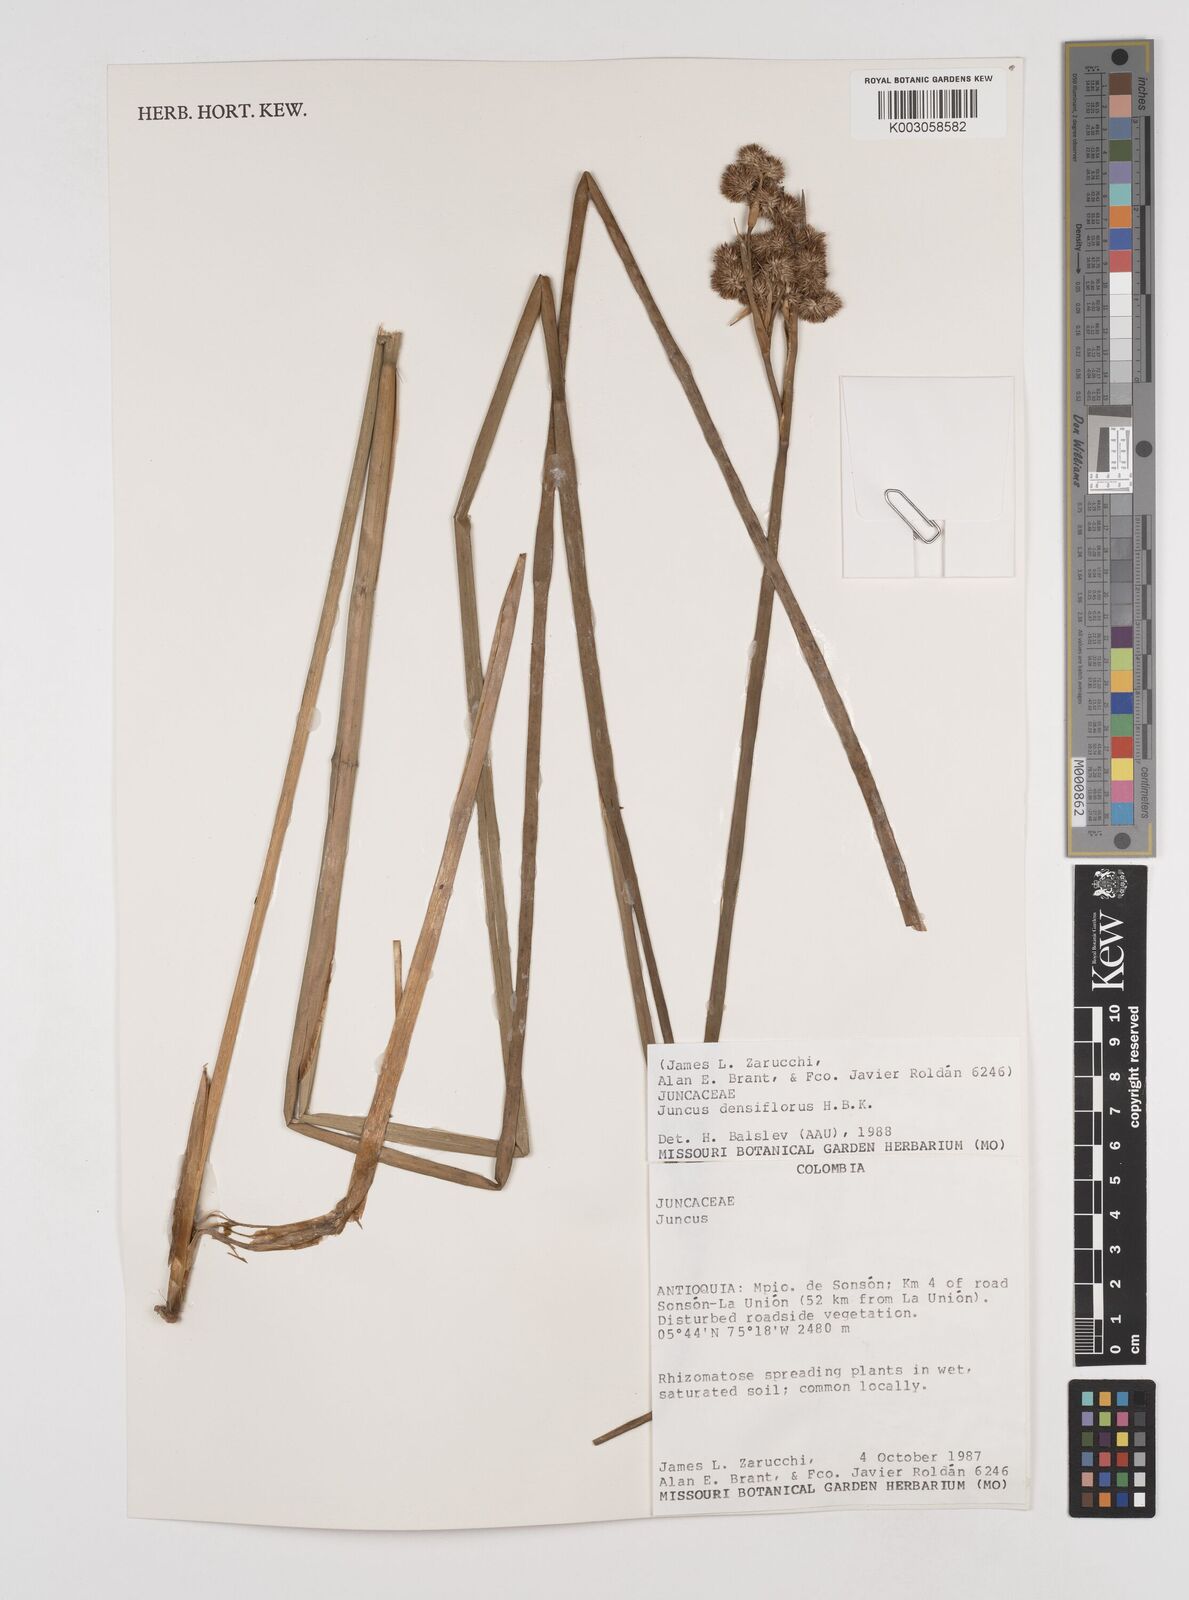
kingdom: Plantae
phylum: Tracheophyta
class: Liliopsida
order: Poales
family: Juncaceae
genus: Juncus
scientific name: Juncus
